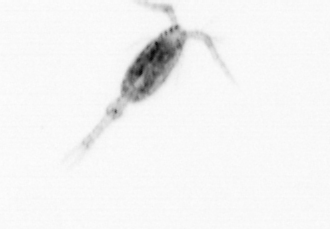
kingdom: Animalia
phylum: Arthropoda
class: Copepoda
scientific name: Copepoda
